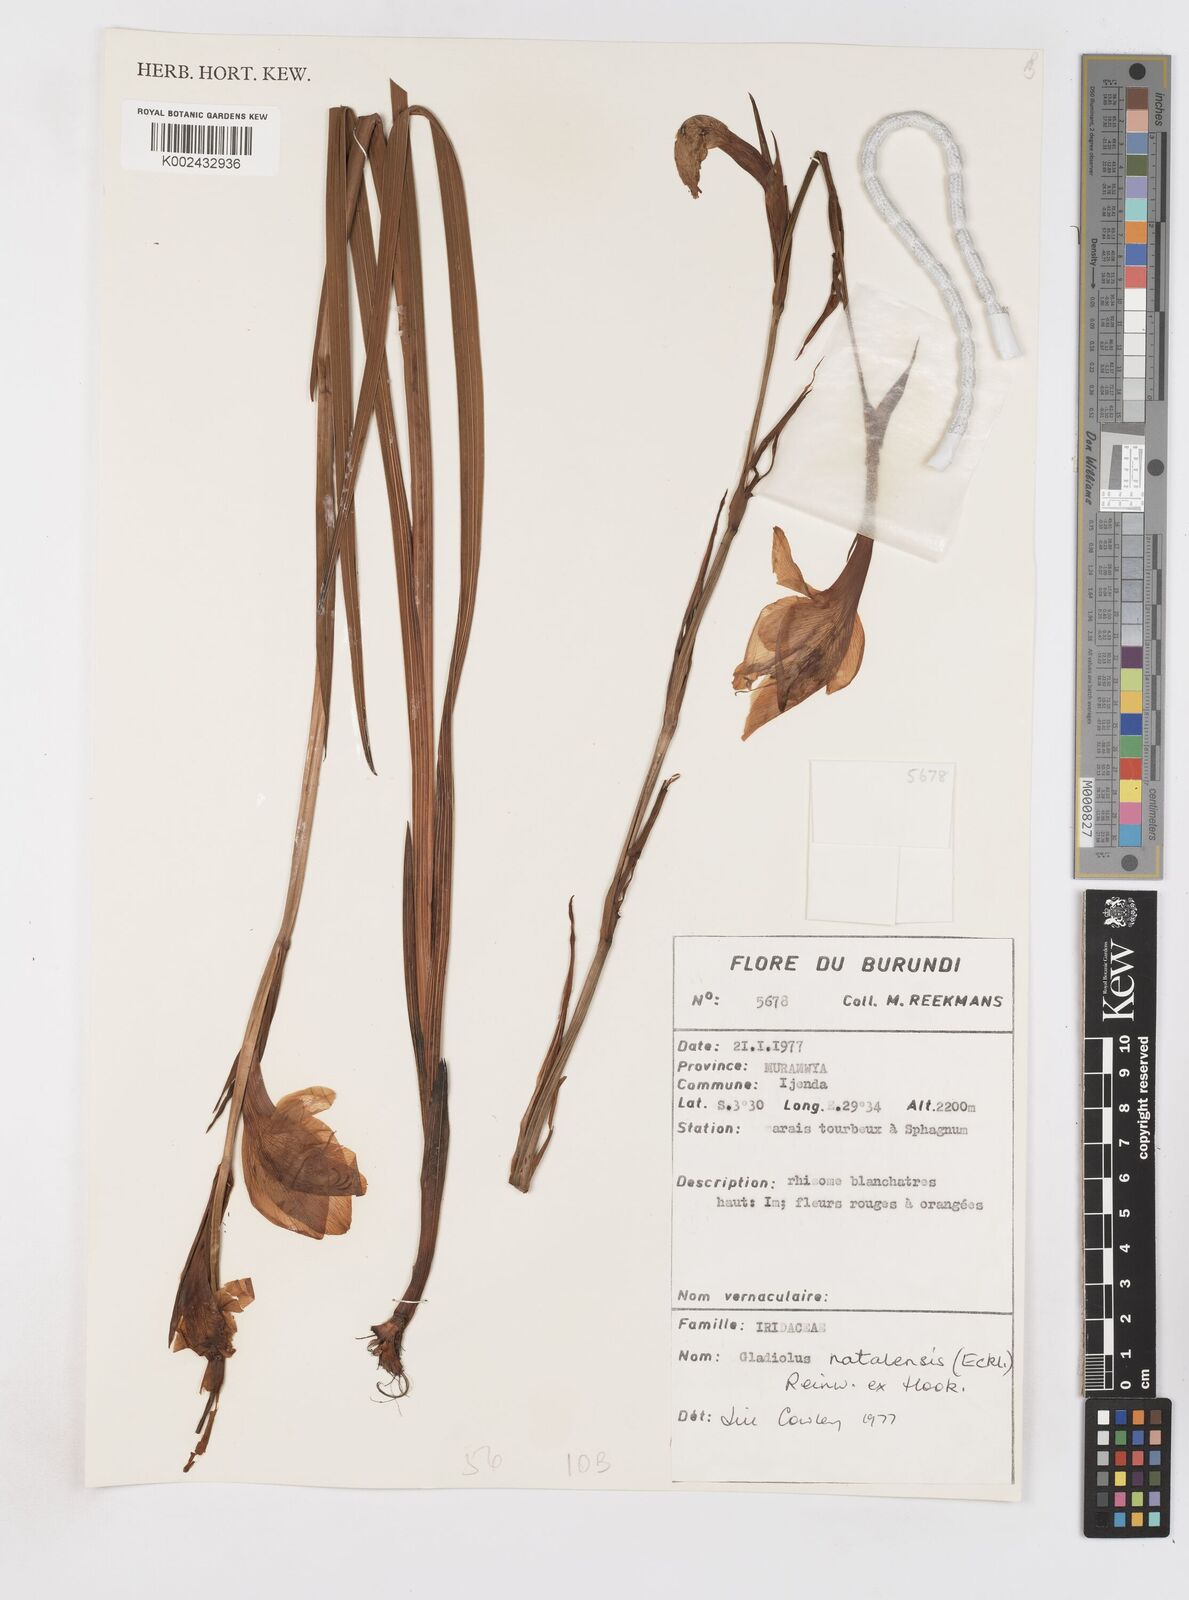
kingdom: Plantae
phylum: Tracheophyta
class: Liliopsida
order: Asparagales
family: Iridaceae
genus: Gladiolus
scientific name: Gladiolus dalenii
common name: Cornflag
